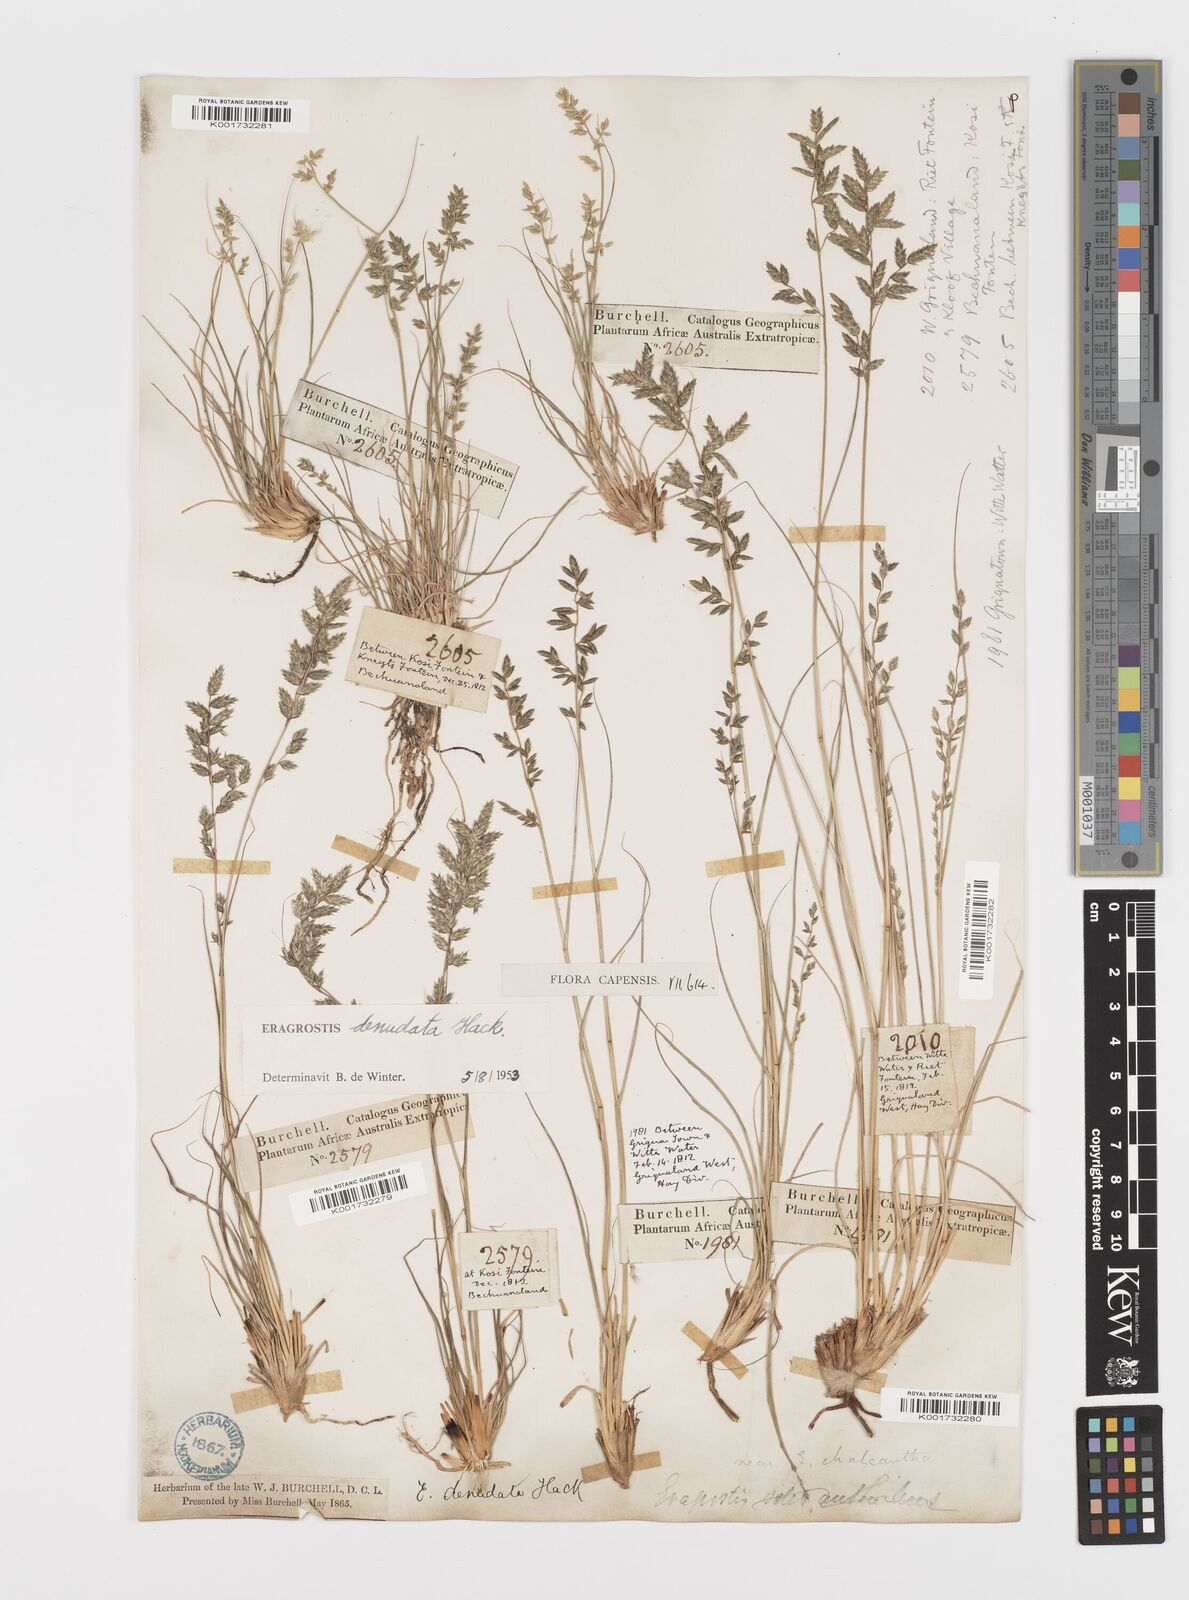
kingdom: Plantae
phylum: Tracheophyta
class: Liliopsida
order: Poales
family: Poaceae
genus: Eragrostis
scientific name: Eragrostis nindensis
